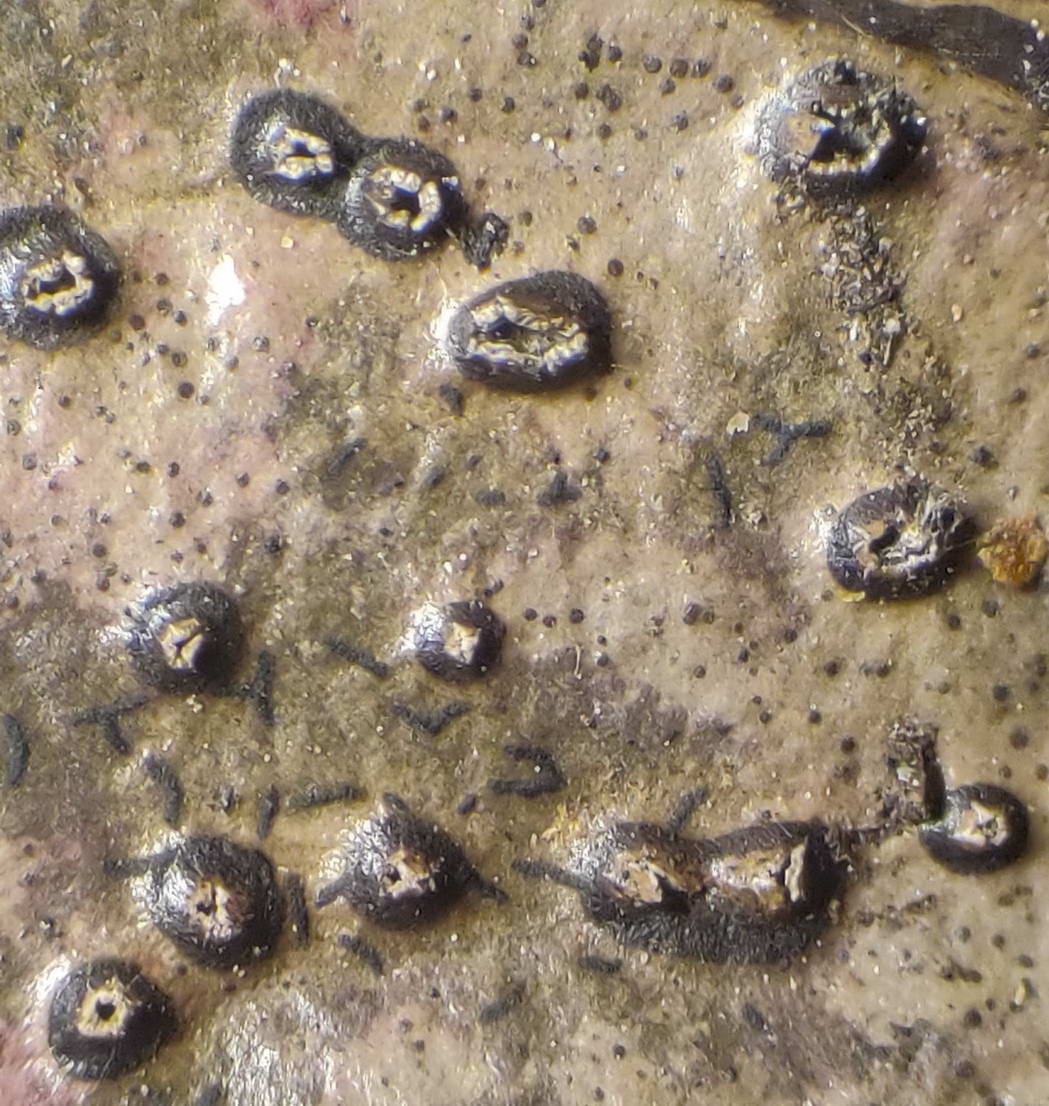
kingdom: Fungi
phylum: Ascomycota
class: Leotiomycetes
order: Phacidiales
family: Phacidiaceae
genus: Phacidium
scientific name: Phacidium lauri
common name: kristtorn-tandskive
